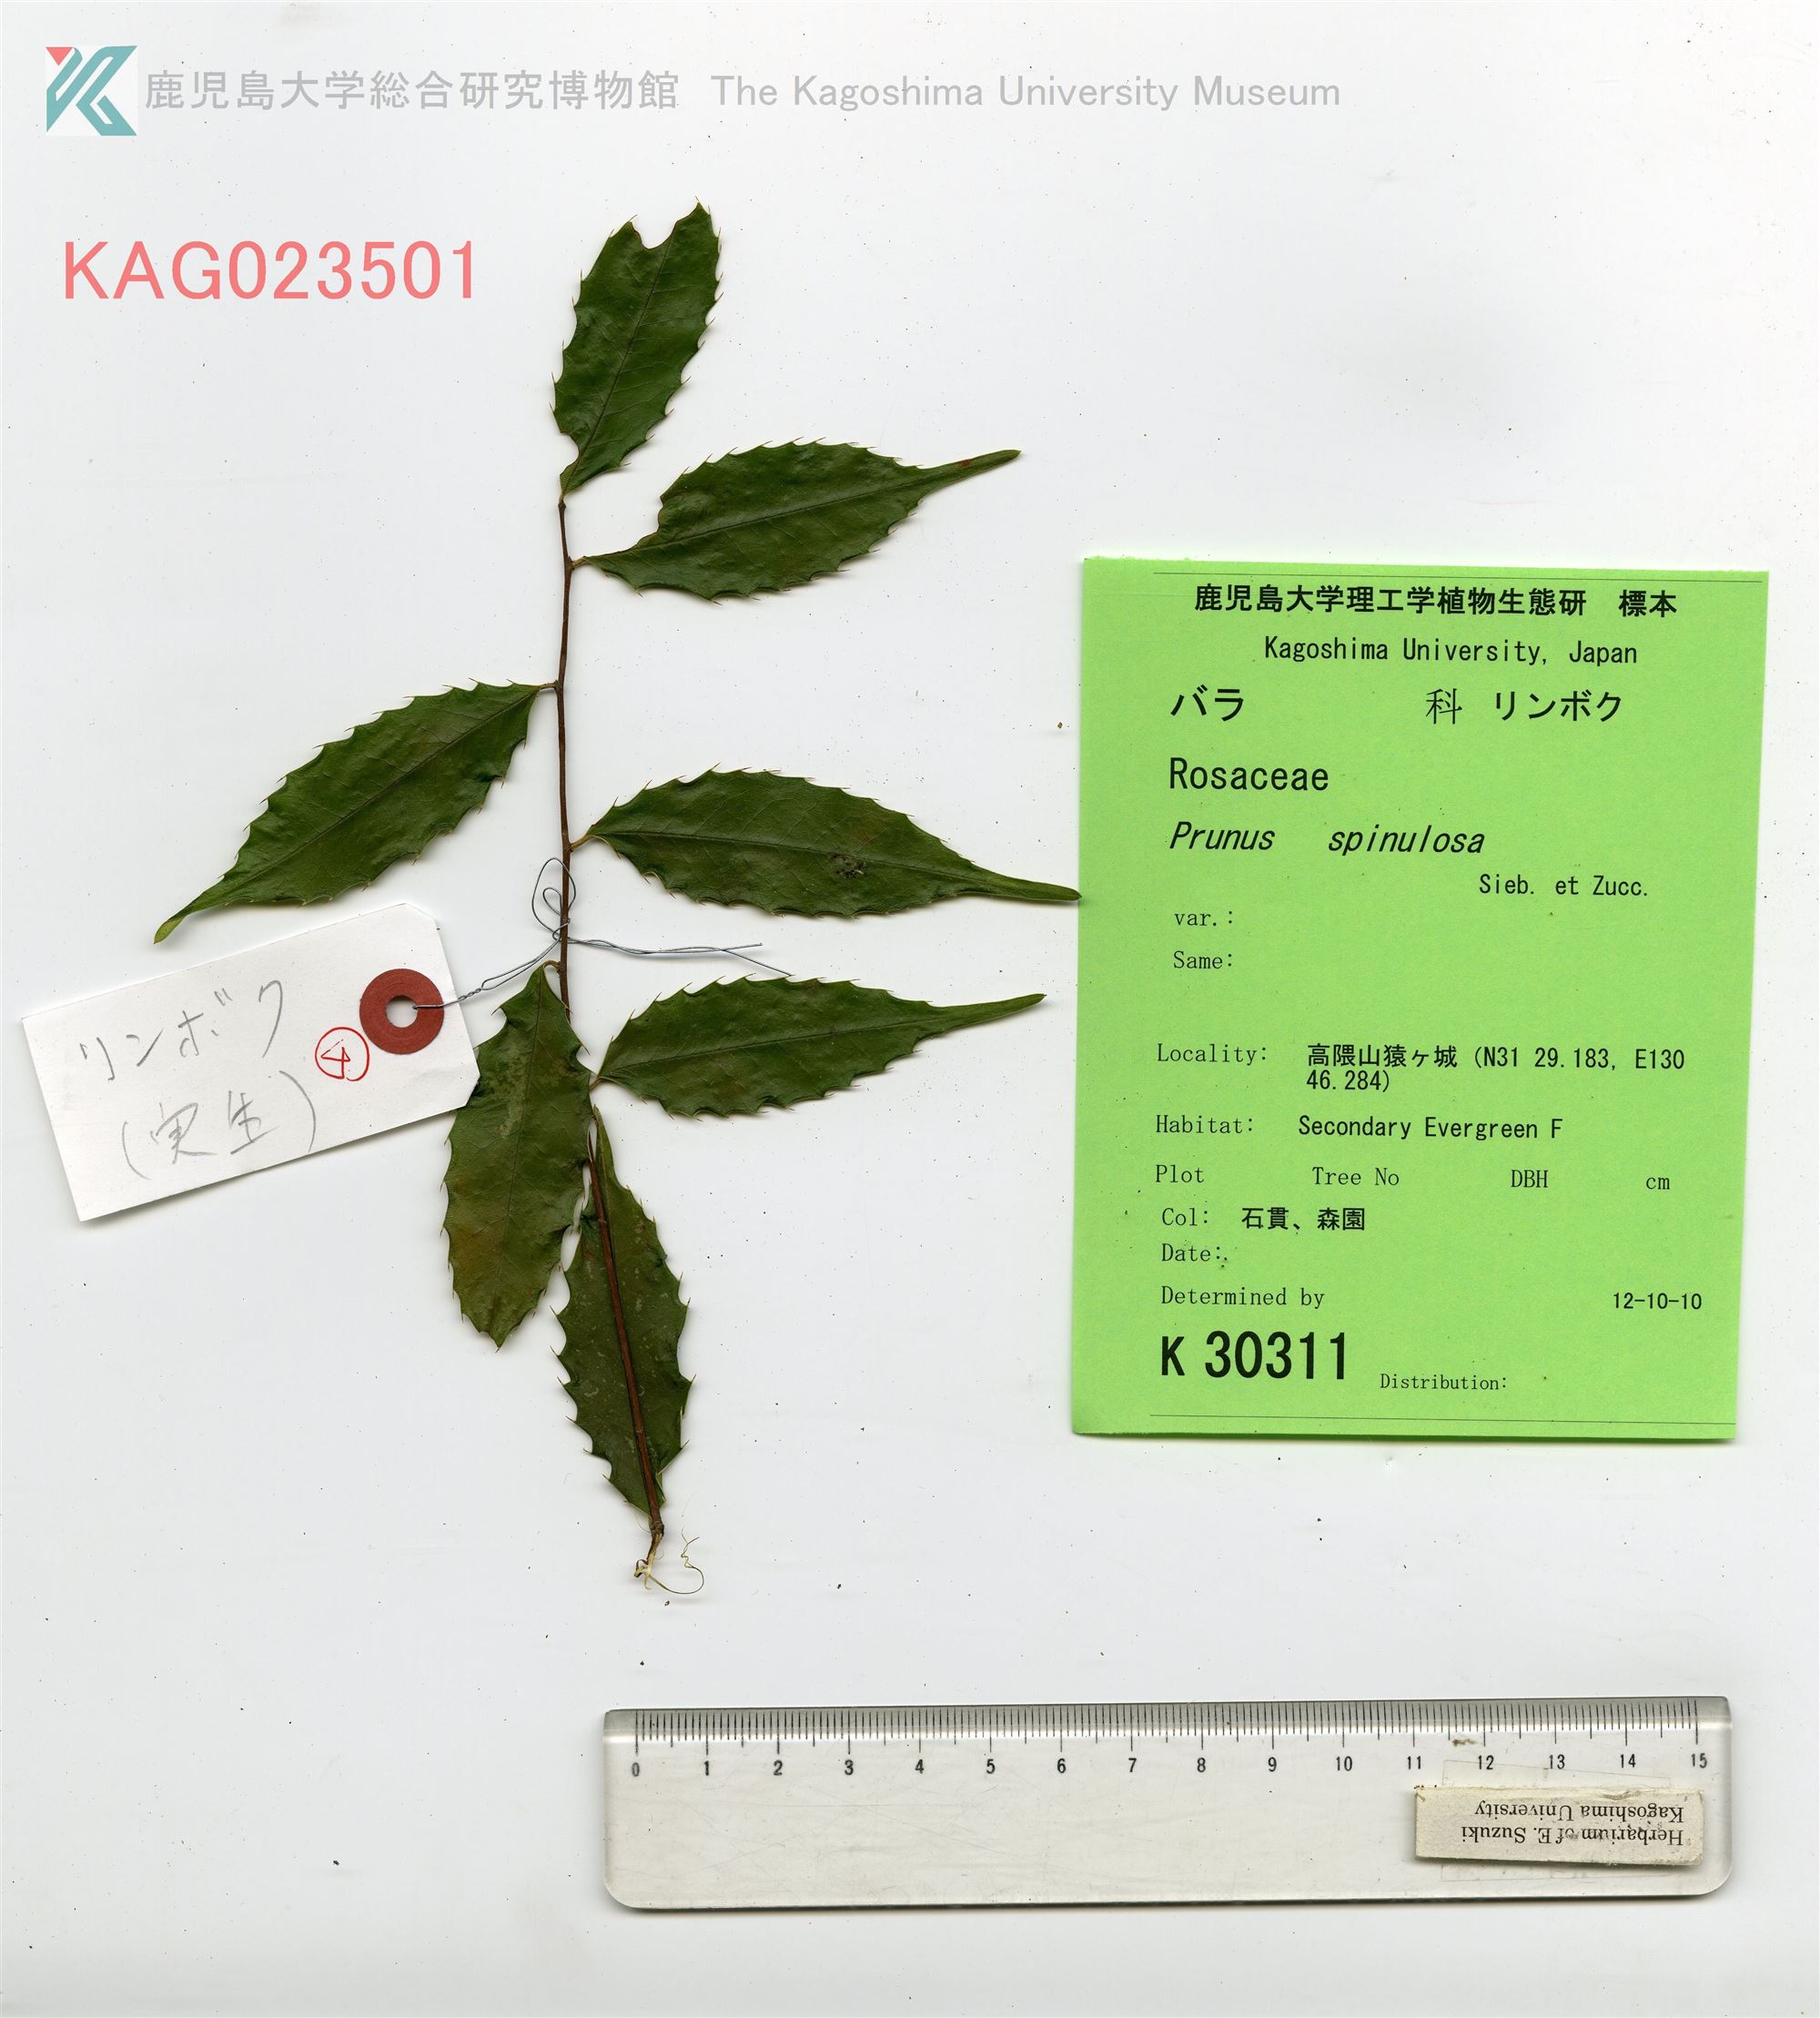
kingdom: Plantae
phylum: Tracheophyta
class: Magnoliopsida
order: Rosales
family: Rosaceae
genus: Prunus
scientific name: Prunus spinulosa
